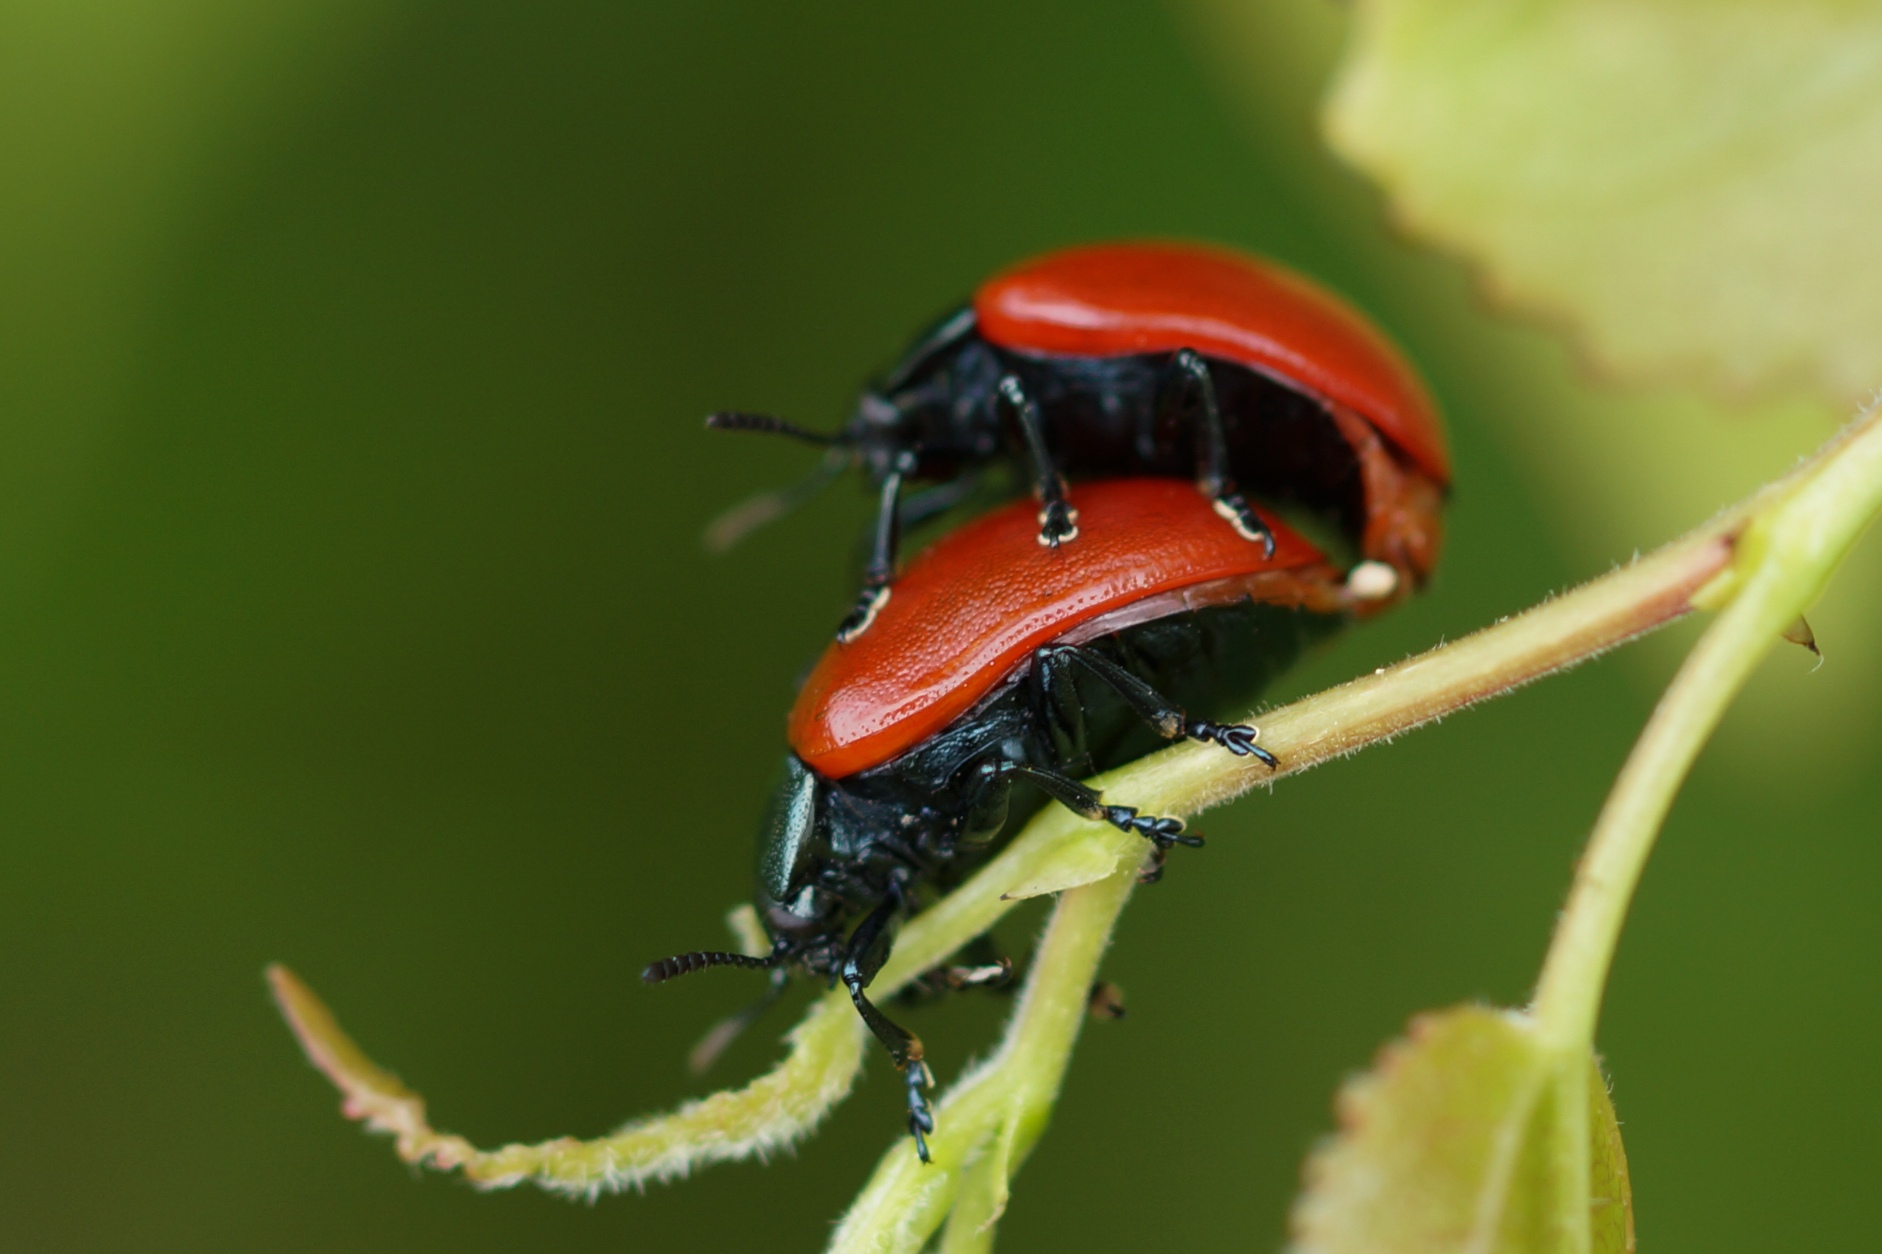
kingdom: Animalia
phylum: Arthropoda
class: Insecta
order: Coleoptera
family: Chrysomelidae
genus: Chrysomela
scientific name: Chrysomela populi
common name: Poppelbladbille
